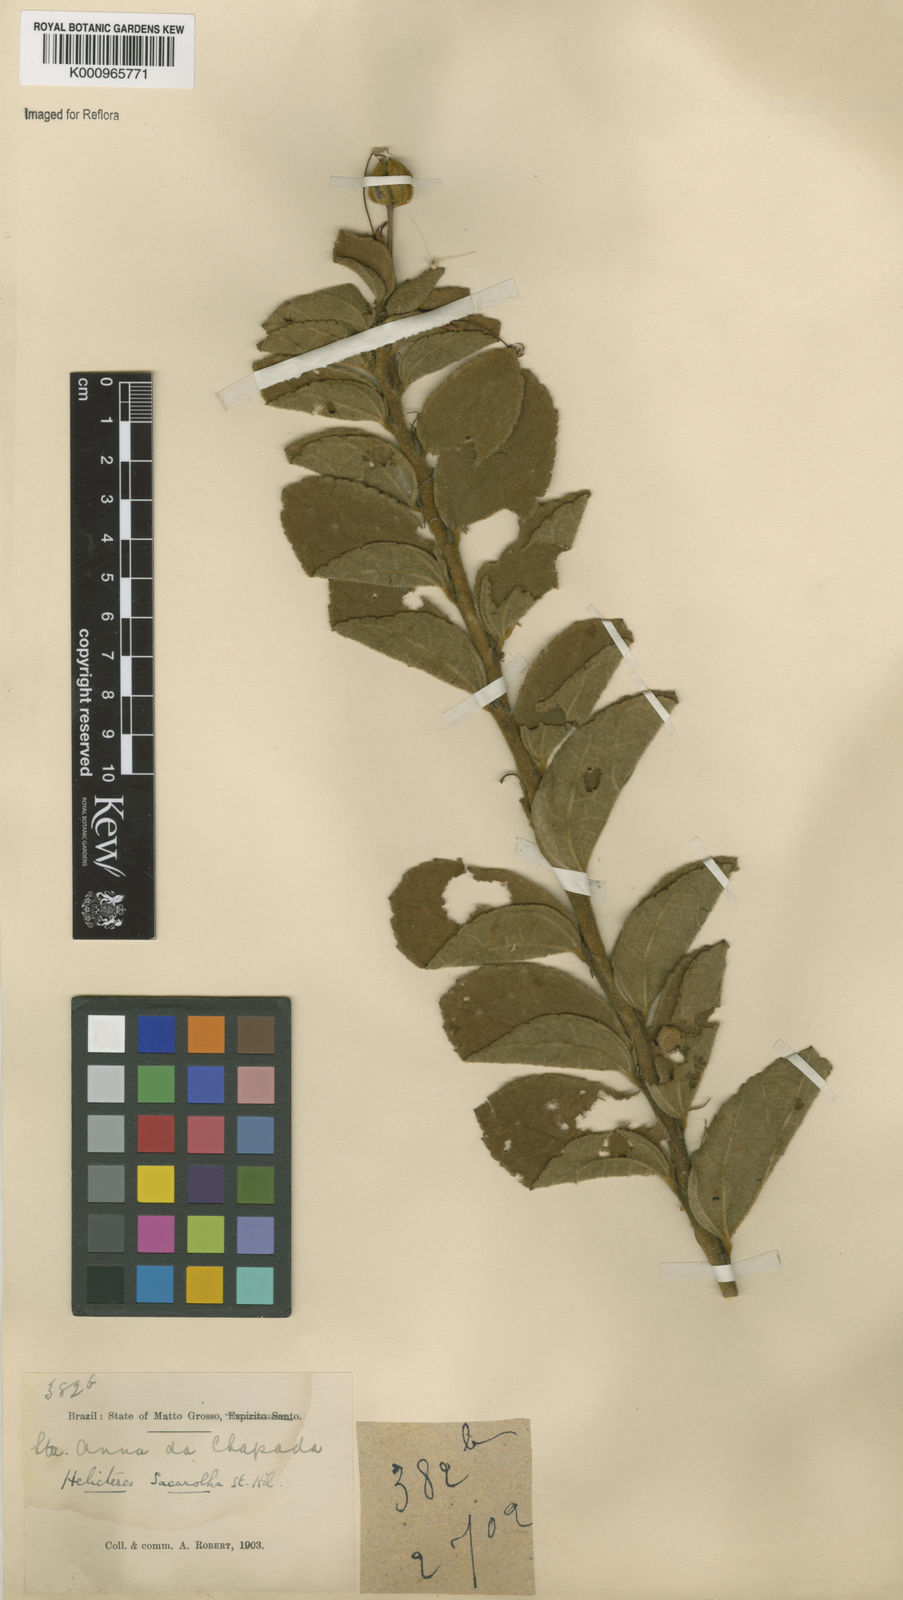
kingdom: Plantae
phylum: Tracheophyta
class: Magnoliopsida
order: Malvales
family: Malvaceae
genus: Helicteres
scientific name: Helicteres
